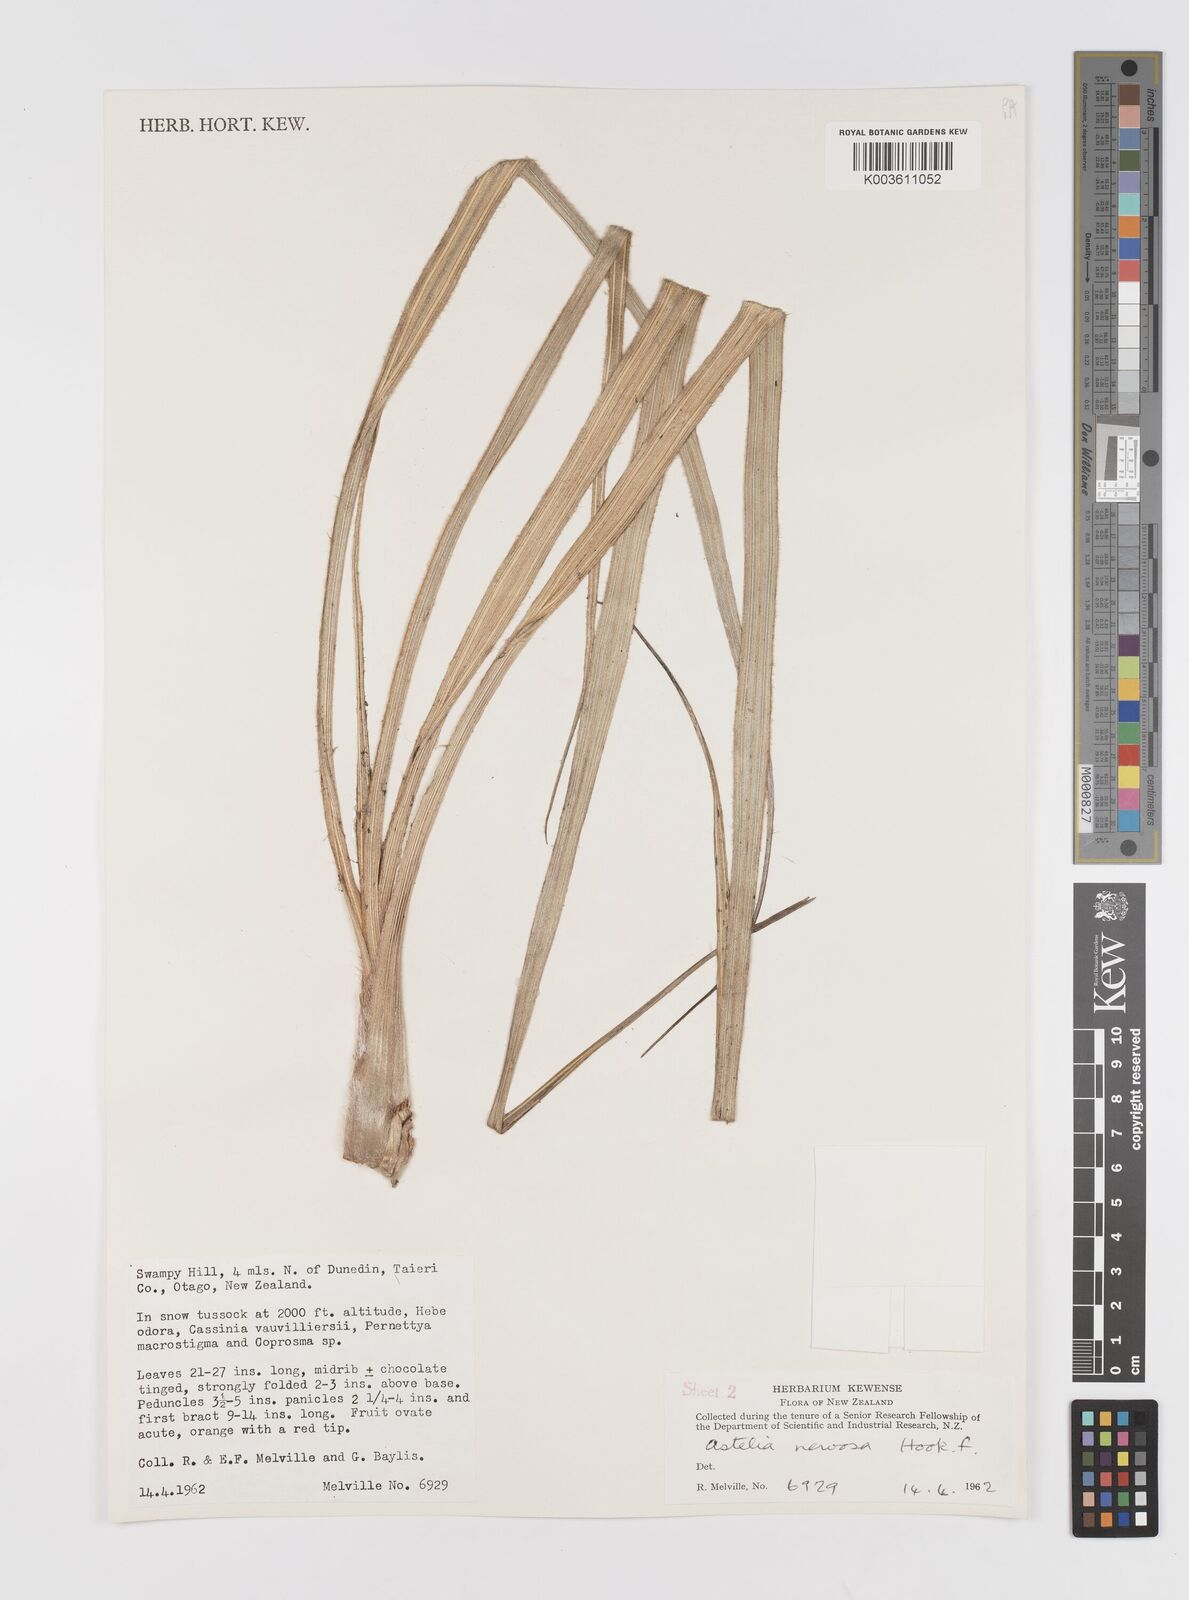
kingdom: Plantae
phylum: Tracheophyta
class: Liliopsida
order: Asparagales
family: Asteliaceae
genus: Astelia
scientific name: Astelia nervosa
